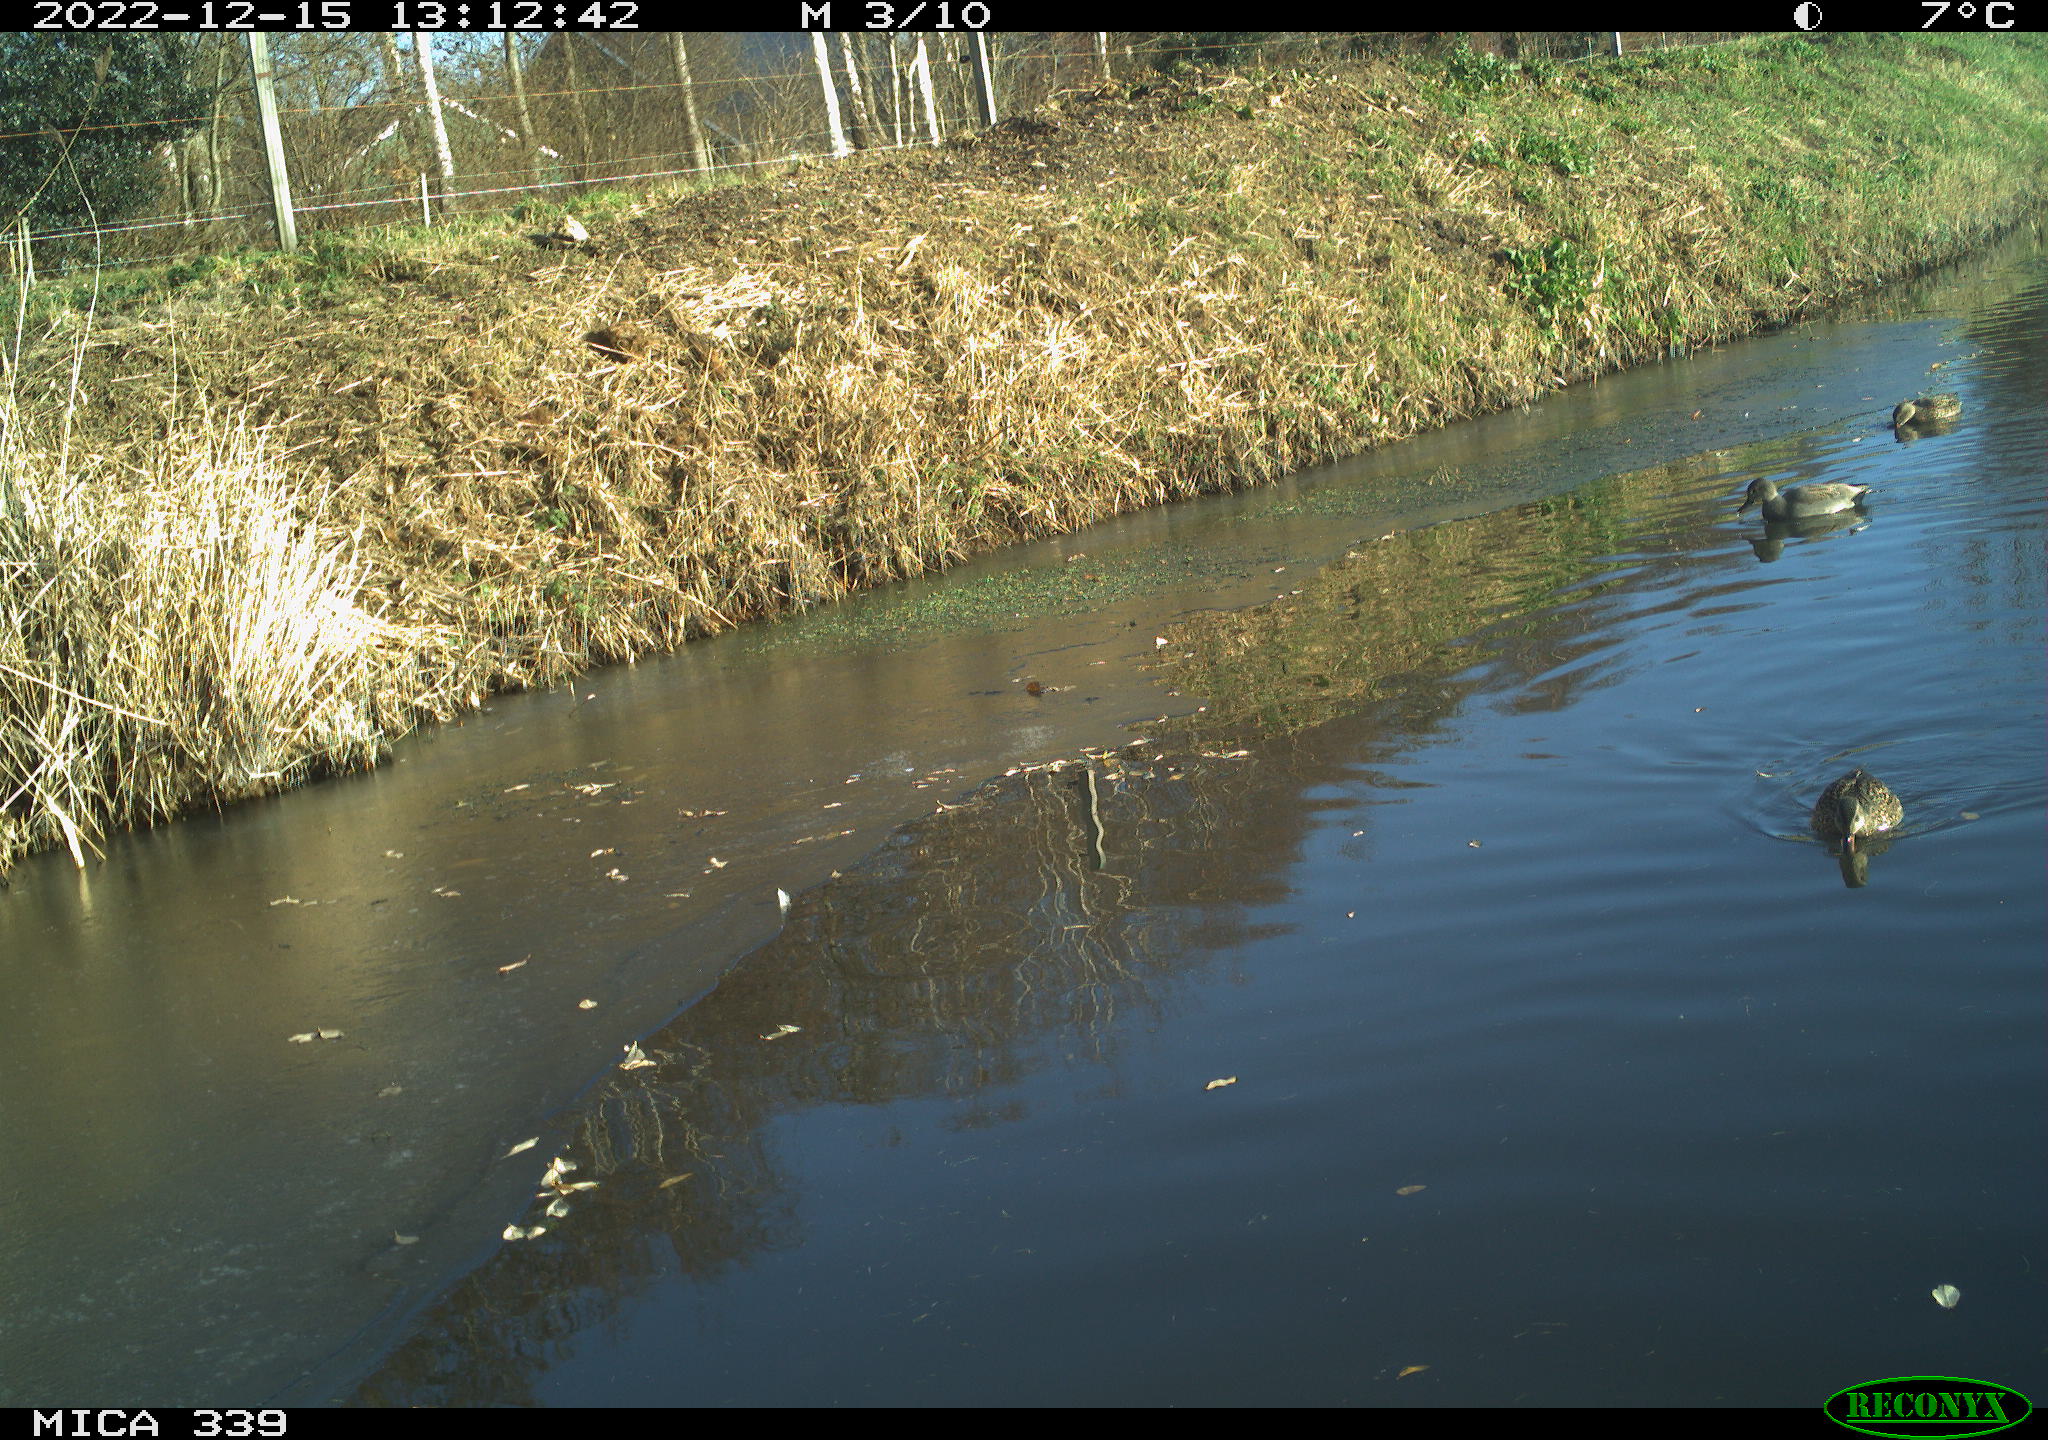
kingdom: Animalia
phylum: Chordata
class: Aves
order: Anseriformes
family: Anatidae
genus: Anas
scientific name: Anas
